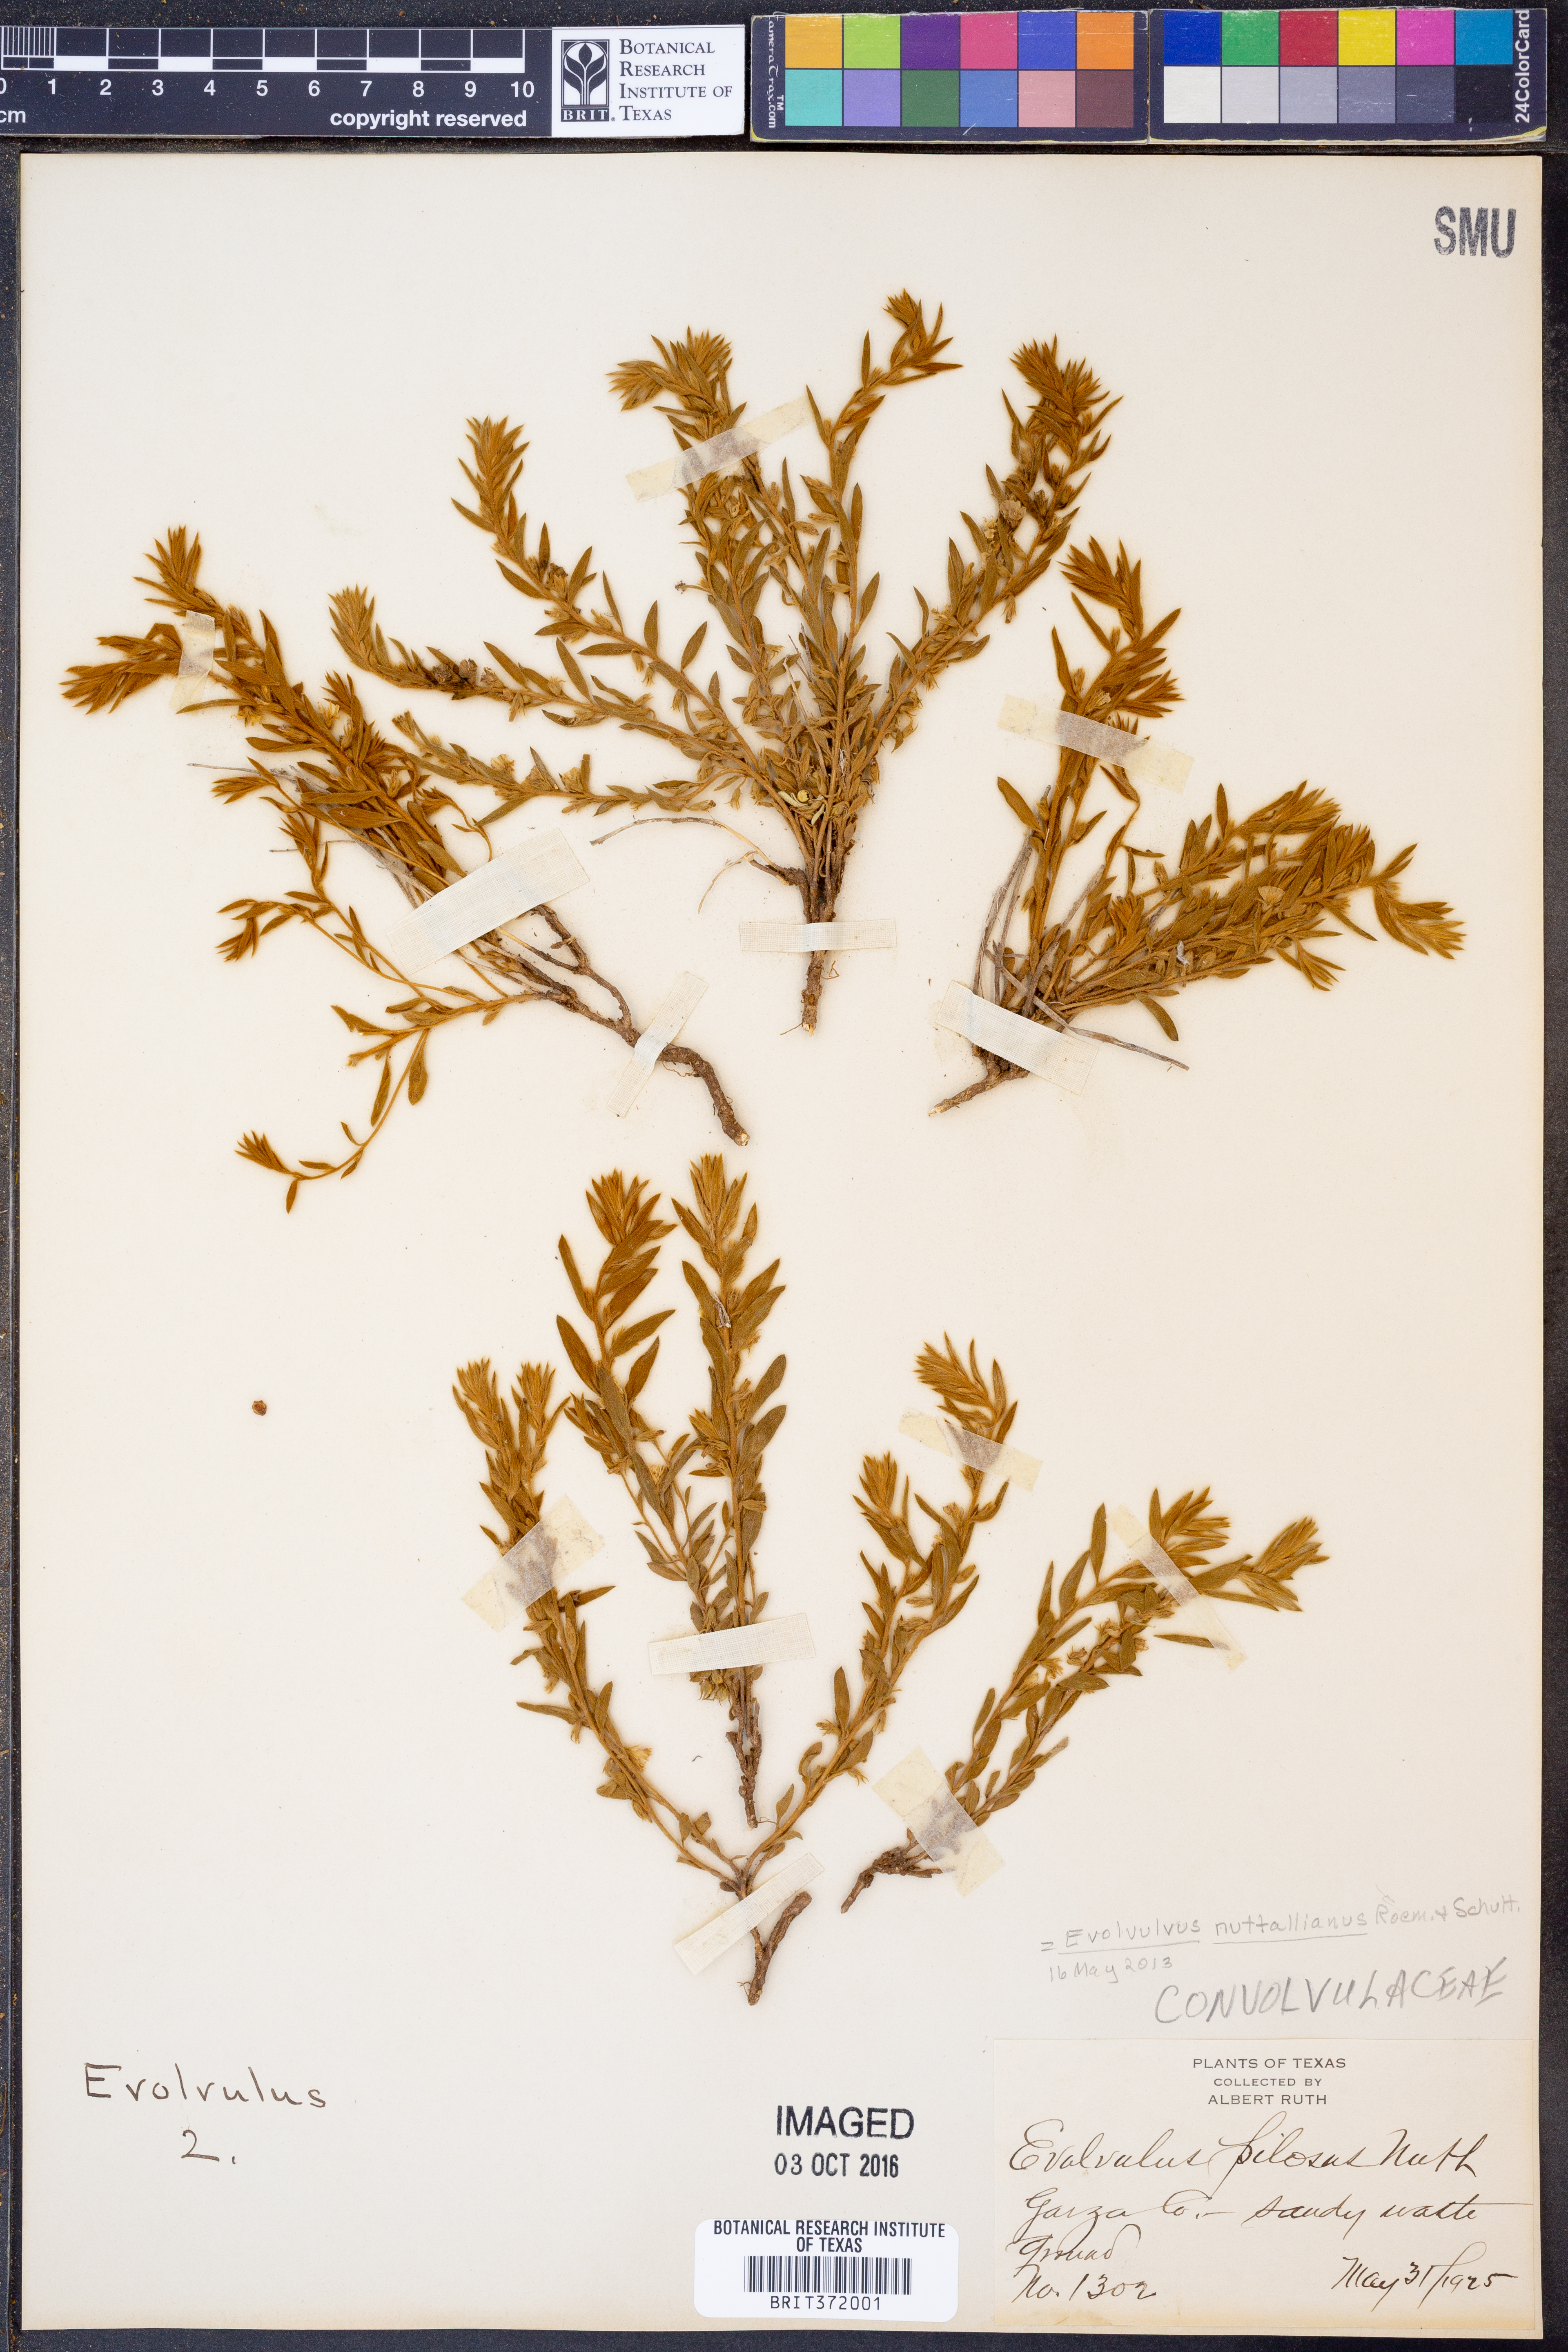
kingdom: Plantae
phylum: Tracheophyta
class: Magnoliopsida
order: Solanales
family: Convolvulaceae
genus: Evolvulus
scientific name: Evolvulus nuttallianus
